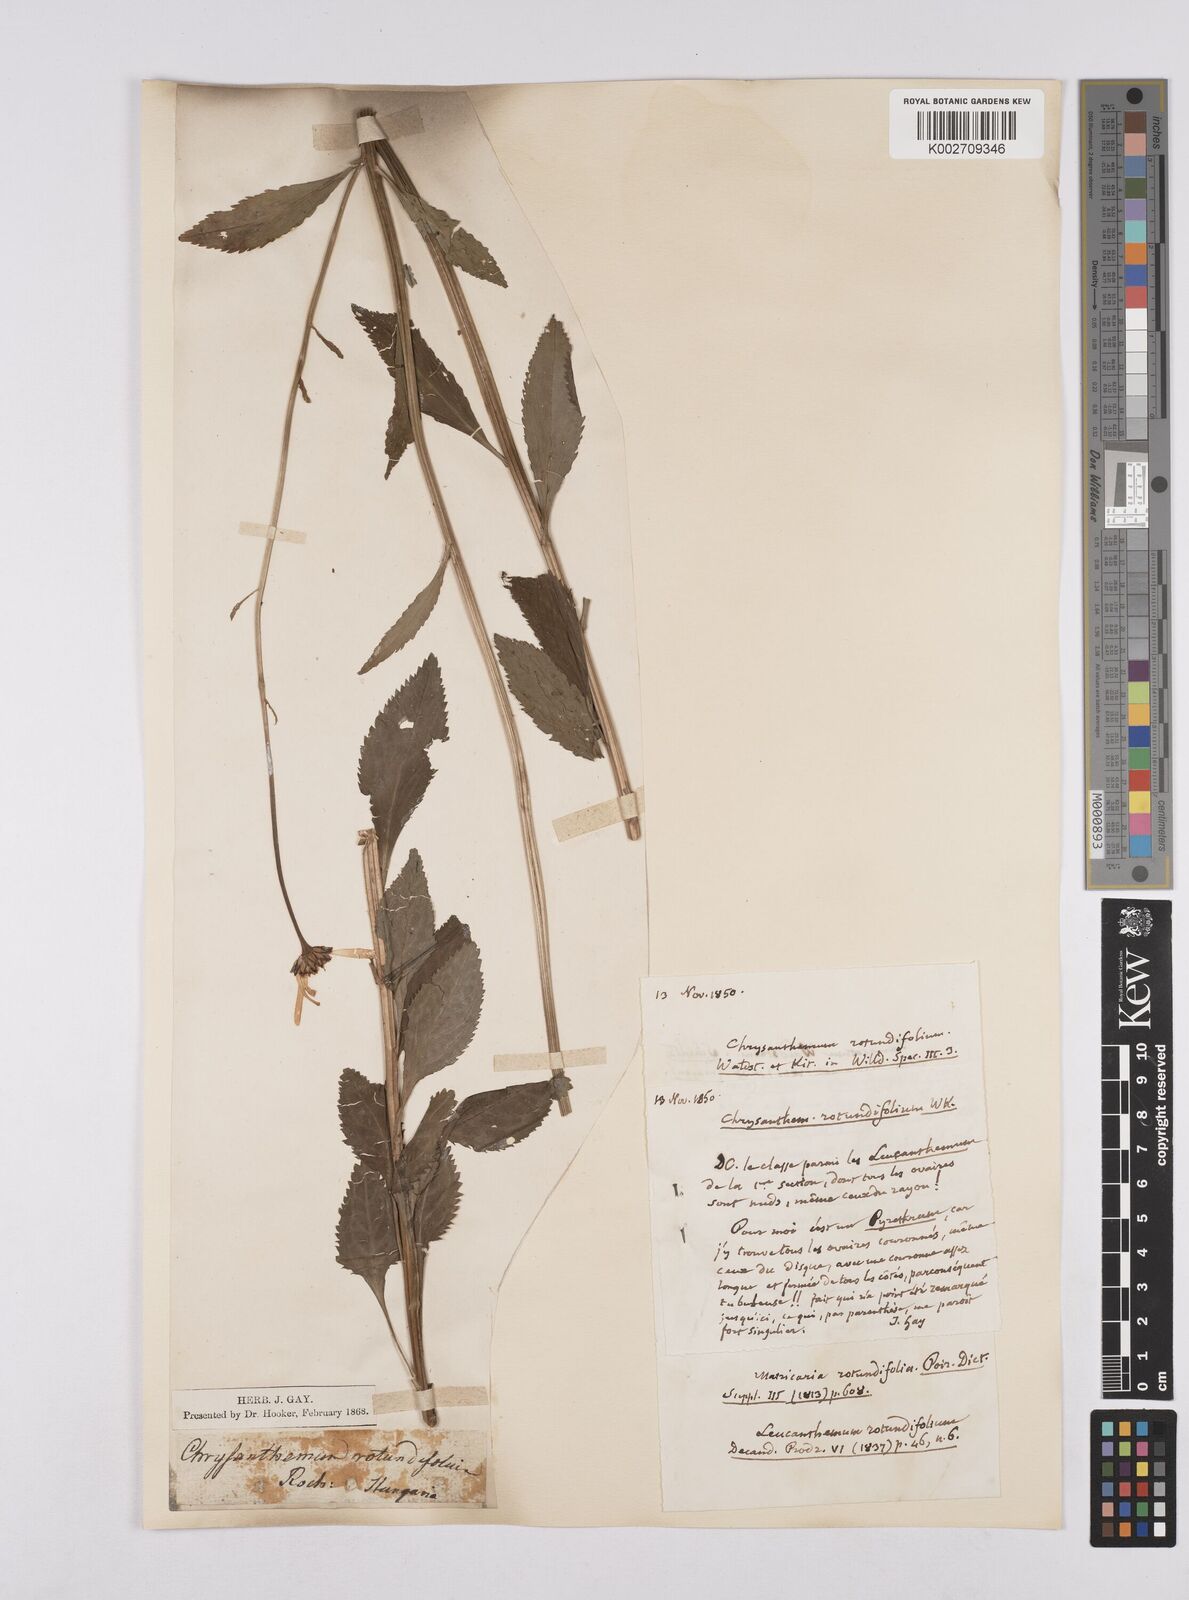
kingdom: Plantae
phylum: Tracheophyta
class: Magnoliopsida
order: Asterales
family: Asteraceae
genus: Leucanthemum
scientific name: Leucanthemum rotundifolium
